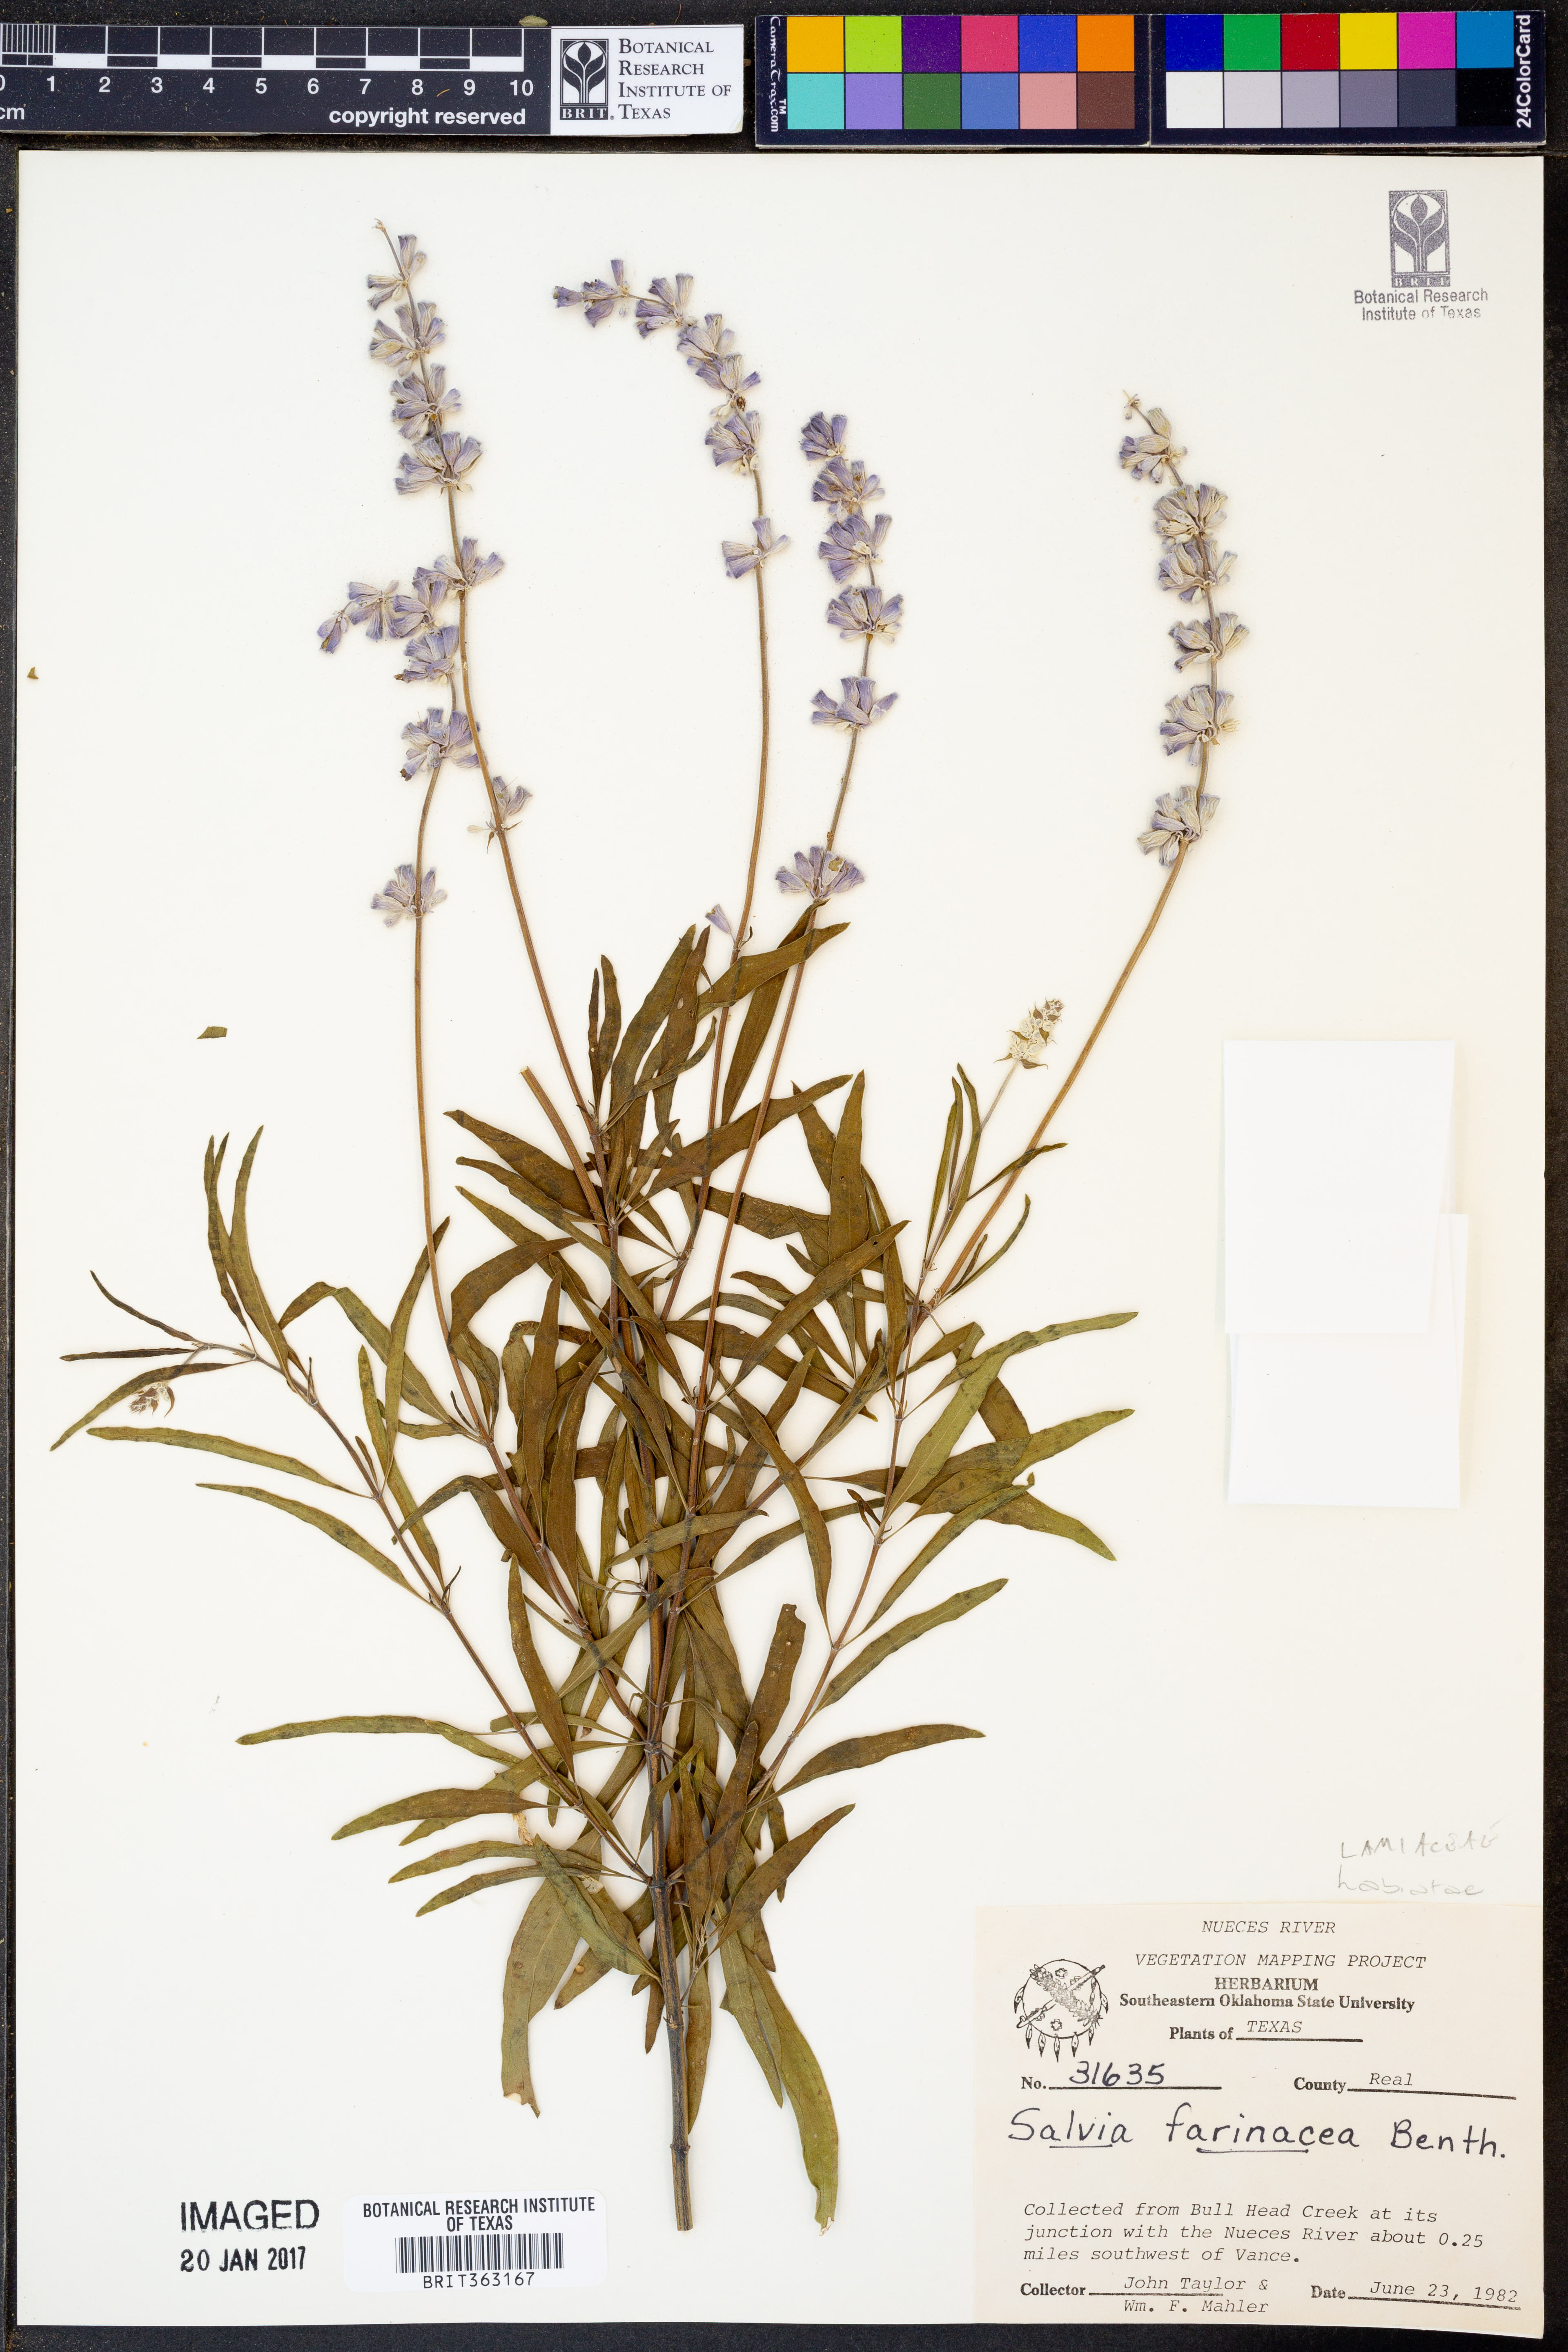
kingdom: Plantae
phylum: Tracheophyta
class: Magnoliopsida
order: Lamiales
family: Lamiaceae
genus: Salvia
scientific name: Salvia farinacea
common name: Mealy sage
